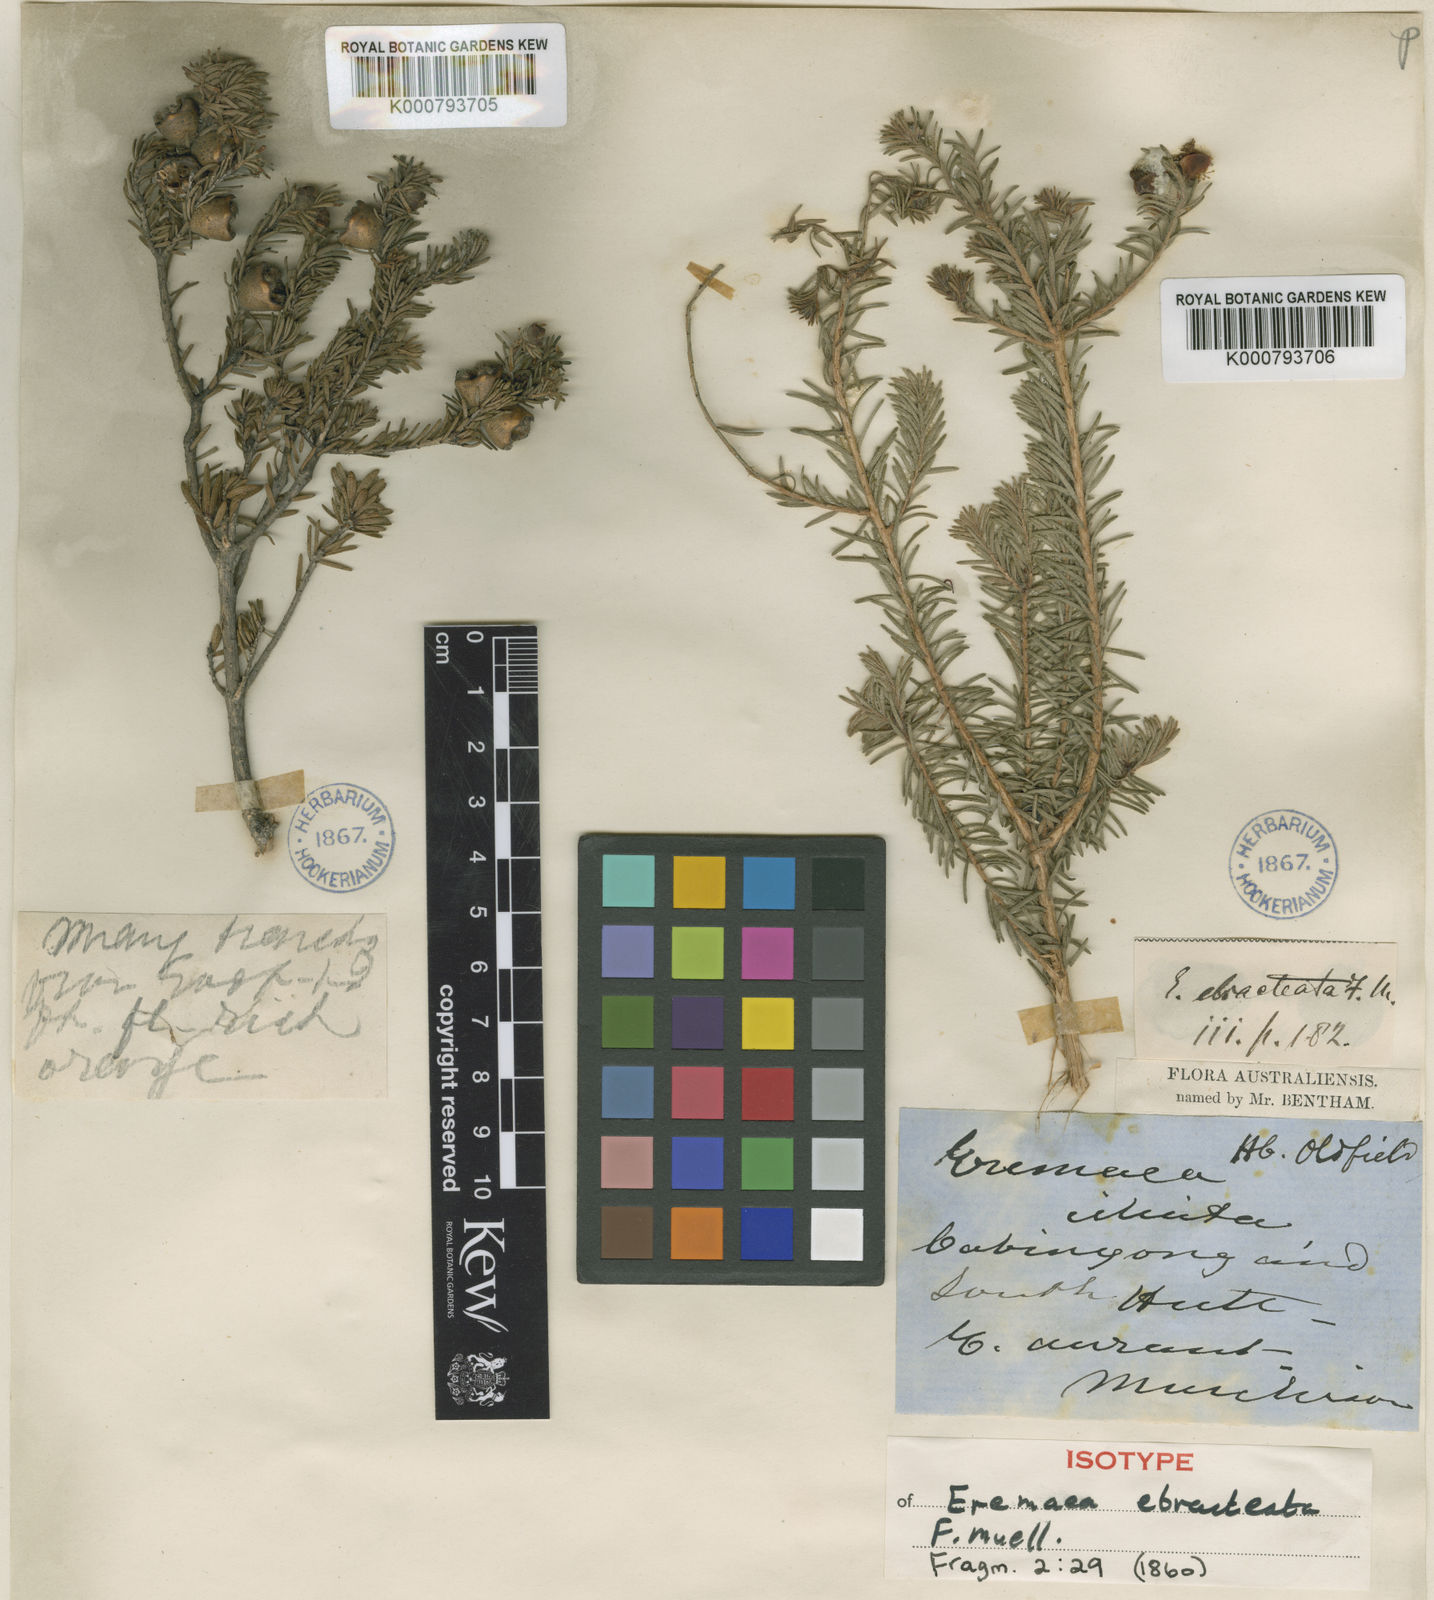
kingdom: Plantae
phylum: Tracheophyta
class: Magnoliopsida
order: Myrtales
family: Myrtaceae
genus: Melaleuca
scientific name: Melaleuca ebracteata
